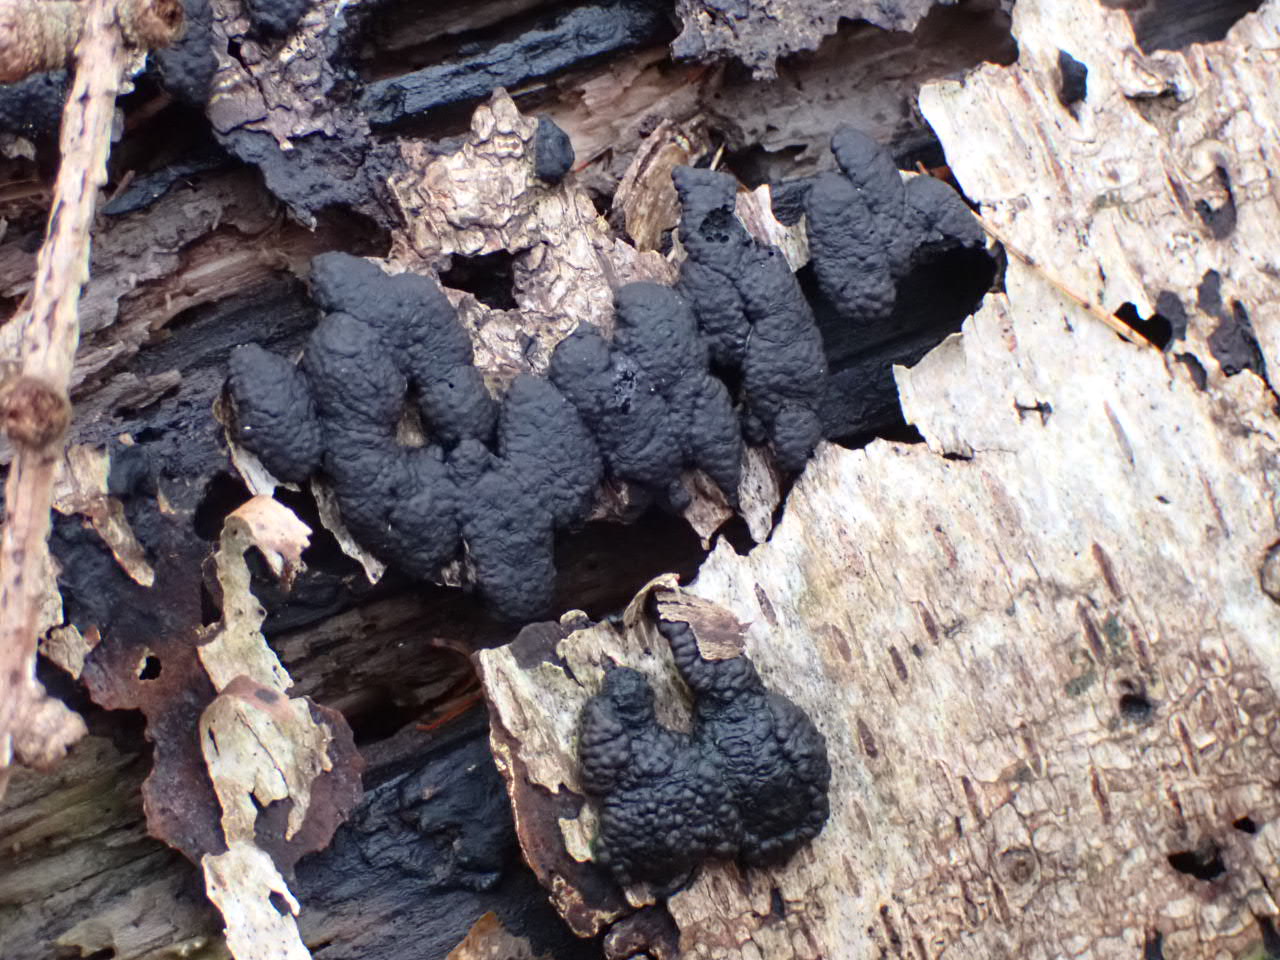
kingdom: Fungi
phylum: Ascomycota
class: Sordariomycetes
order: Xylariales
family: Hypoxylaceae
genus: Jackrogersella
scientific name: Jackrogersella multiformis
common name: foranderlig kulbær
